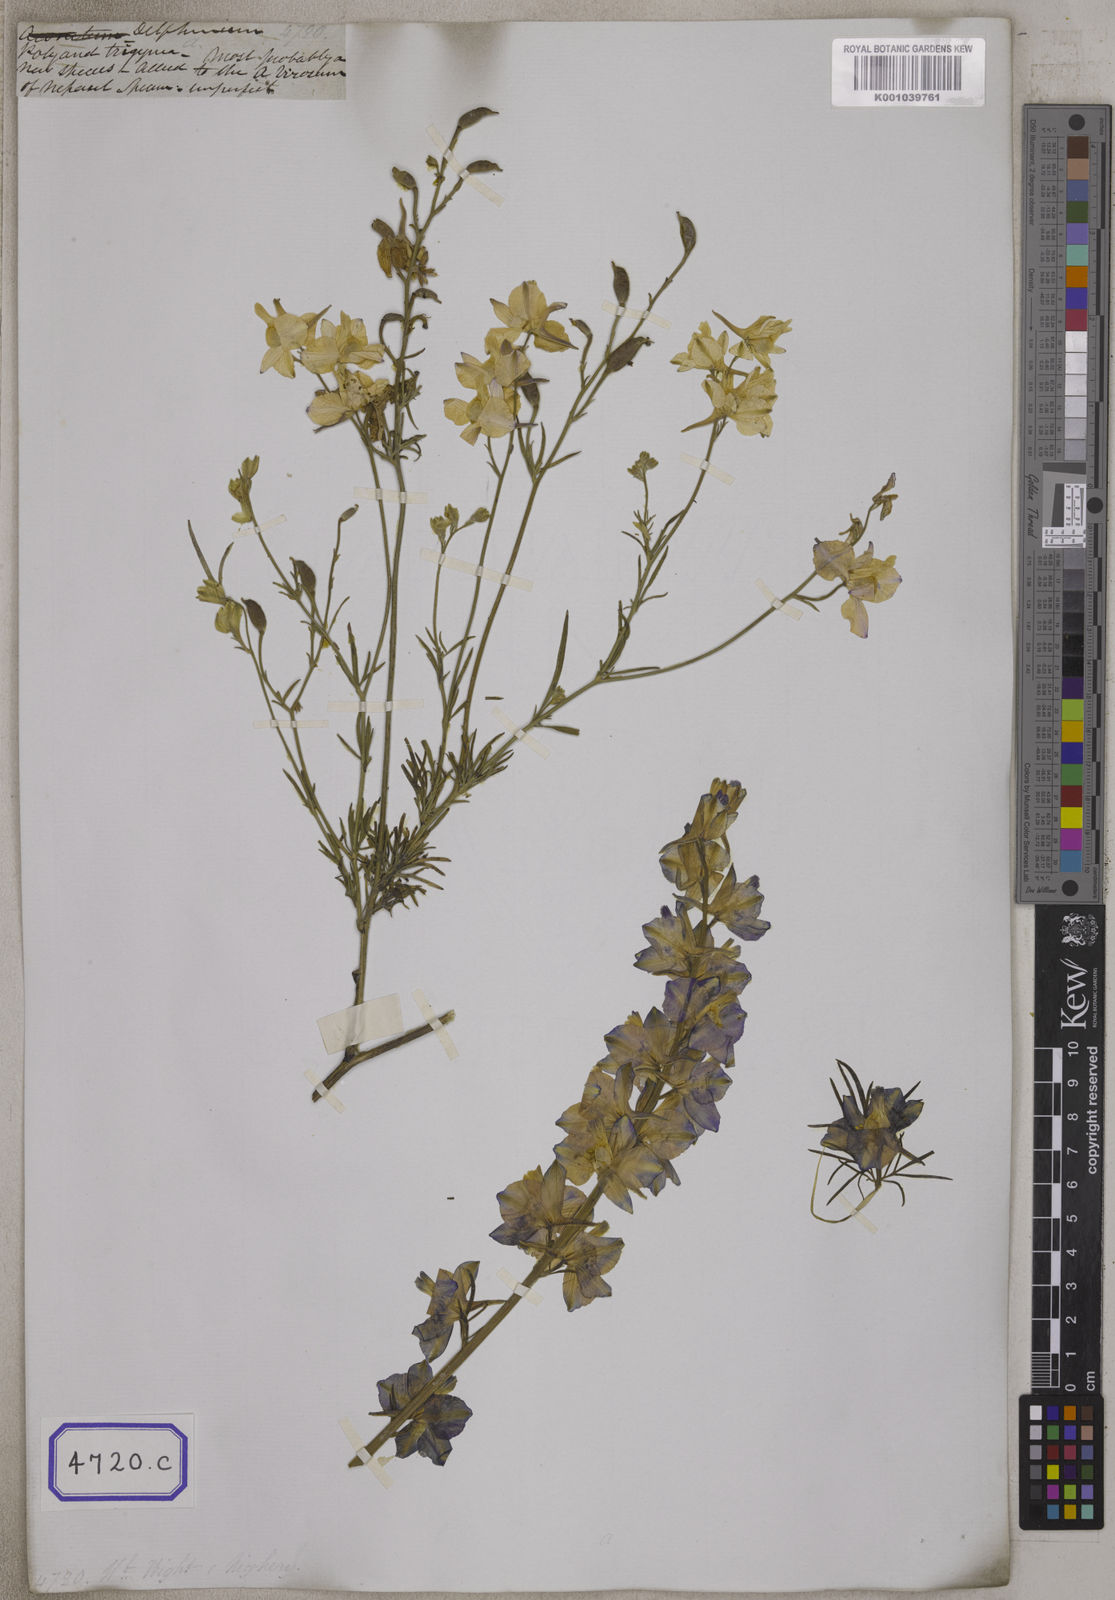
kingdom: Plantae
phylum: Tracheophyta
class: Magnoliopsida
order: Ranunculales
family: Ranunculaceae
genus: Delphinium
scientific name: Delphinium ajacis
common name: Doubtful knight's-spur
